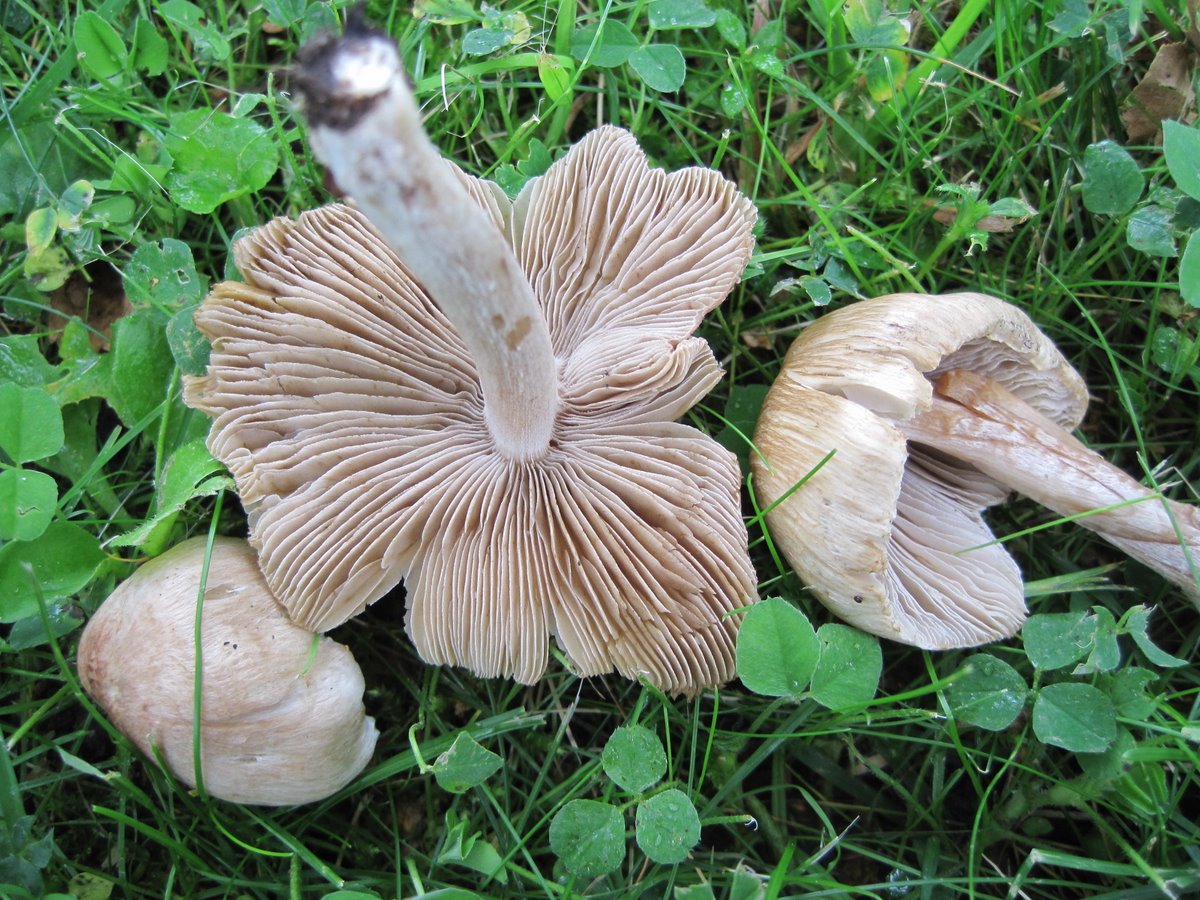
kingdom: Fungi
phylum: Basidiomycota
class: Agaricomycetes
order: Agaricales
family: Inocybaceae
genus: Pseudosperma
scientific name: Pseudosperma rimosum
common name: gulbladet trævlhat
